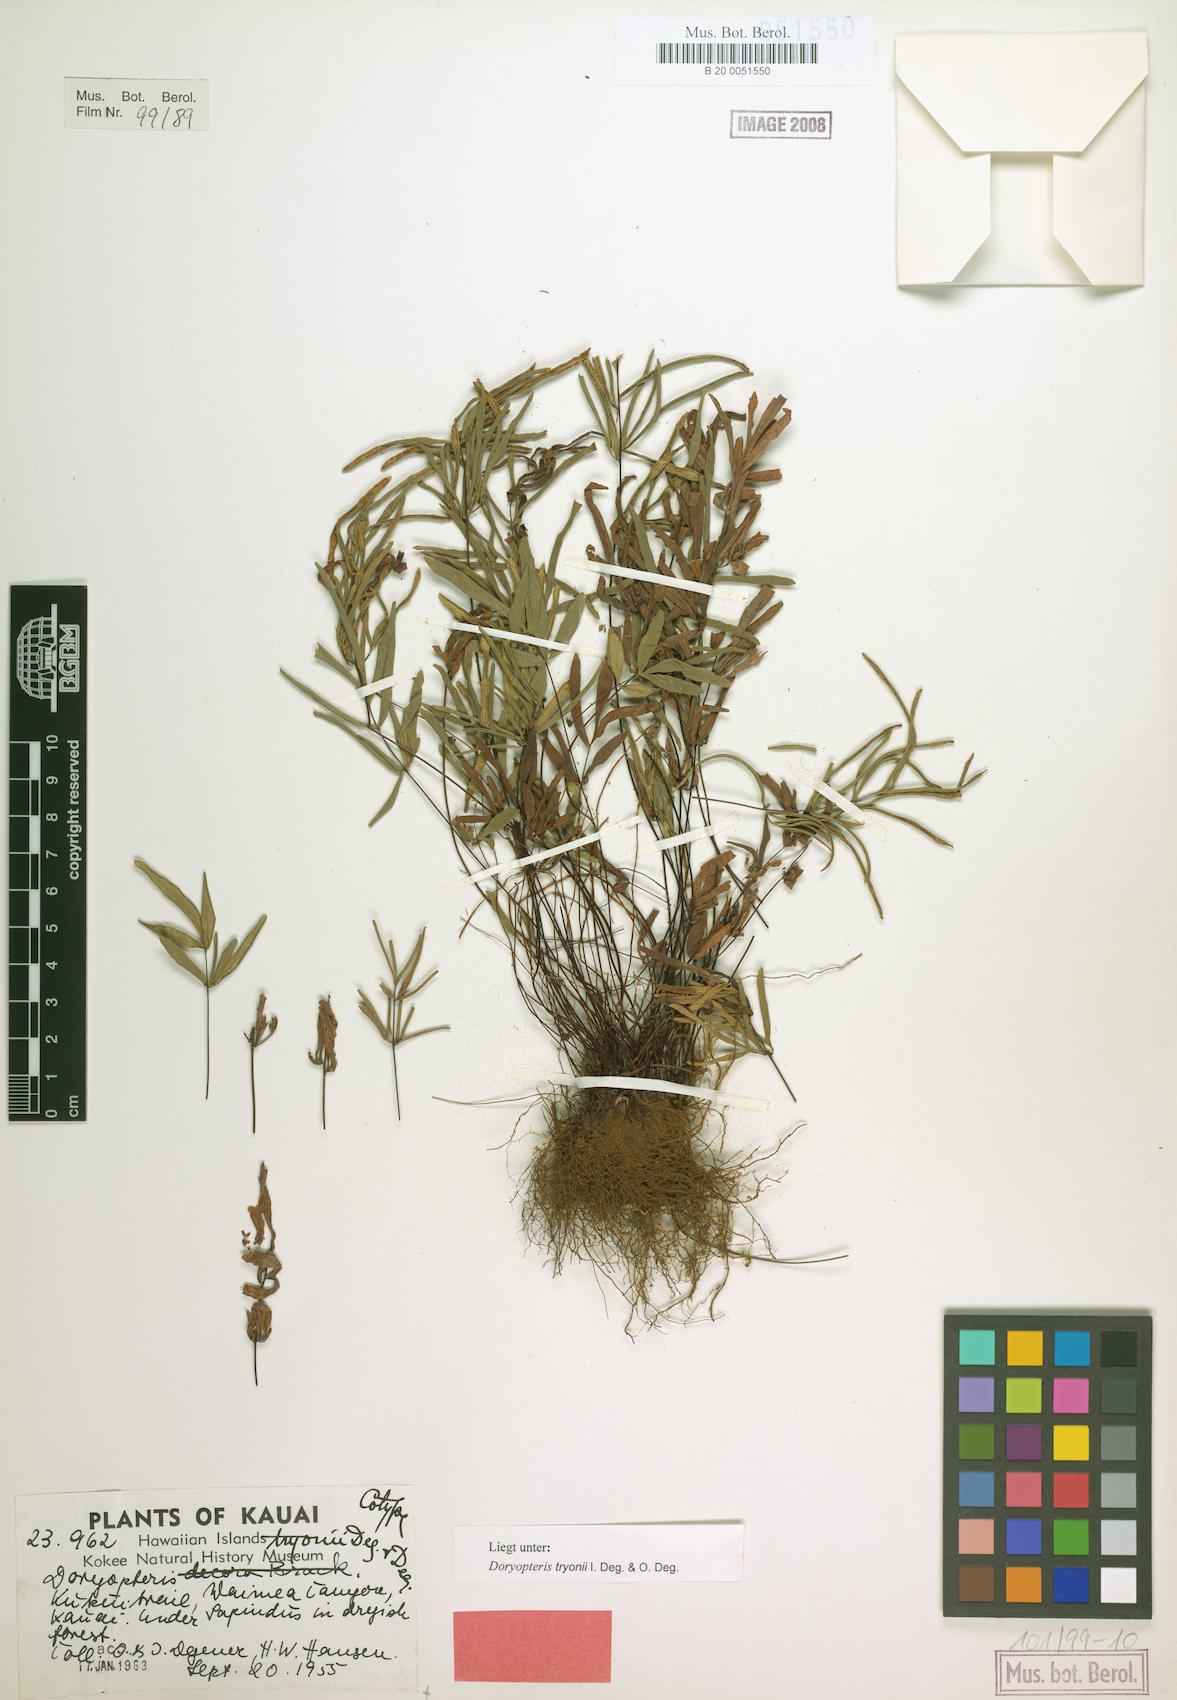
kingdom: Plantae
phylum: Tracheophyta
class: Polypodiopsida
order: Polypodiales
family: Pteridaceae
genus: Doryopteris
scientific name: Doryopteris decipiens
